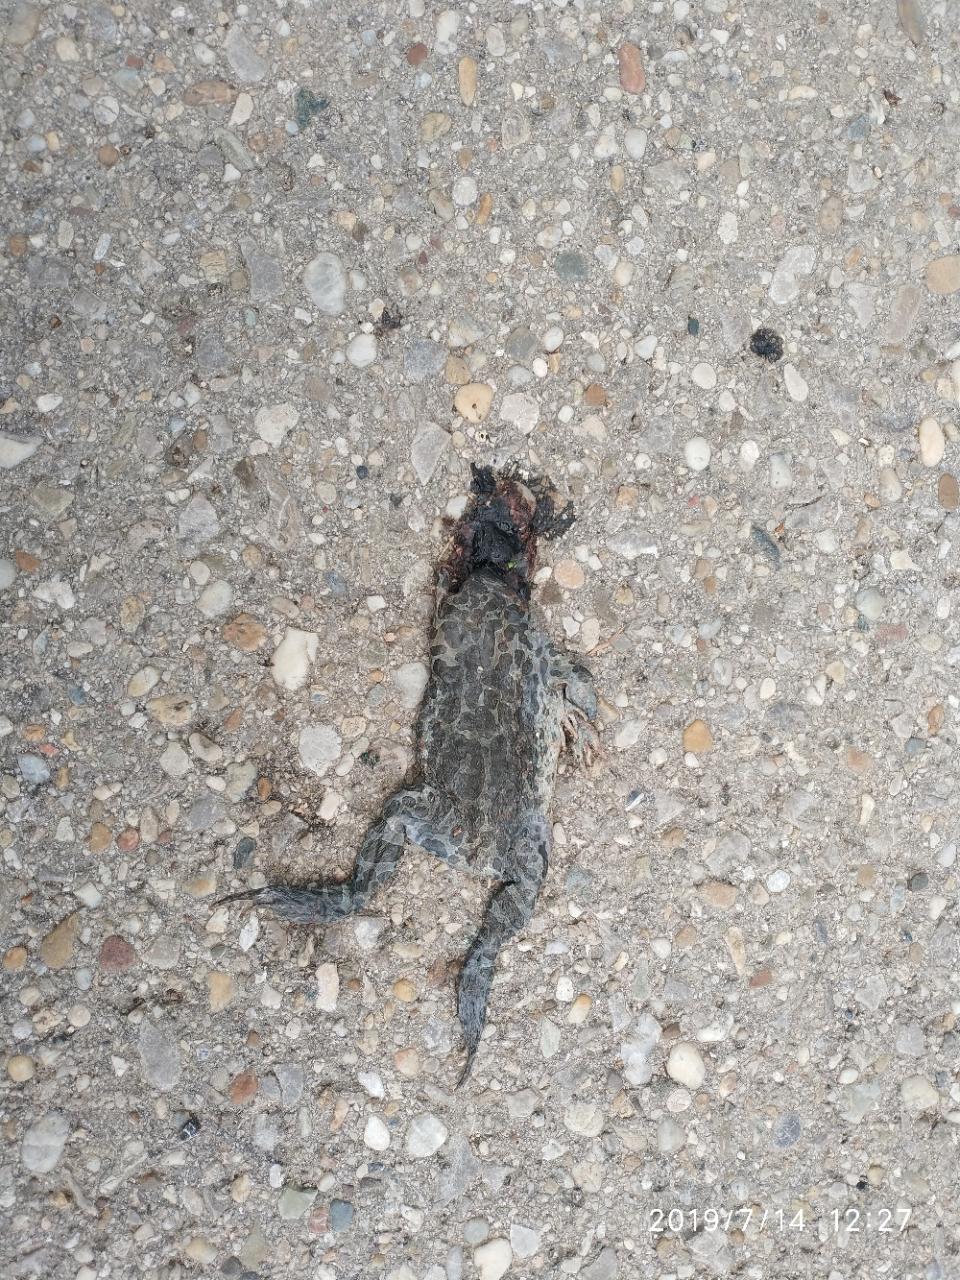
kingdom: Animalia
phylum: Chordata
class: Amphibia
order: Anura
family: Bufonidae
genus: Bufotes
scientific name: Bufotes viridis
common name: European green toad
